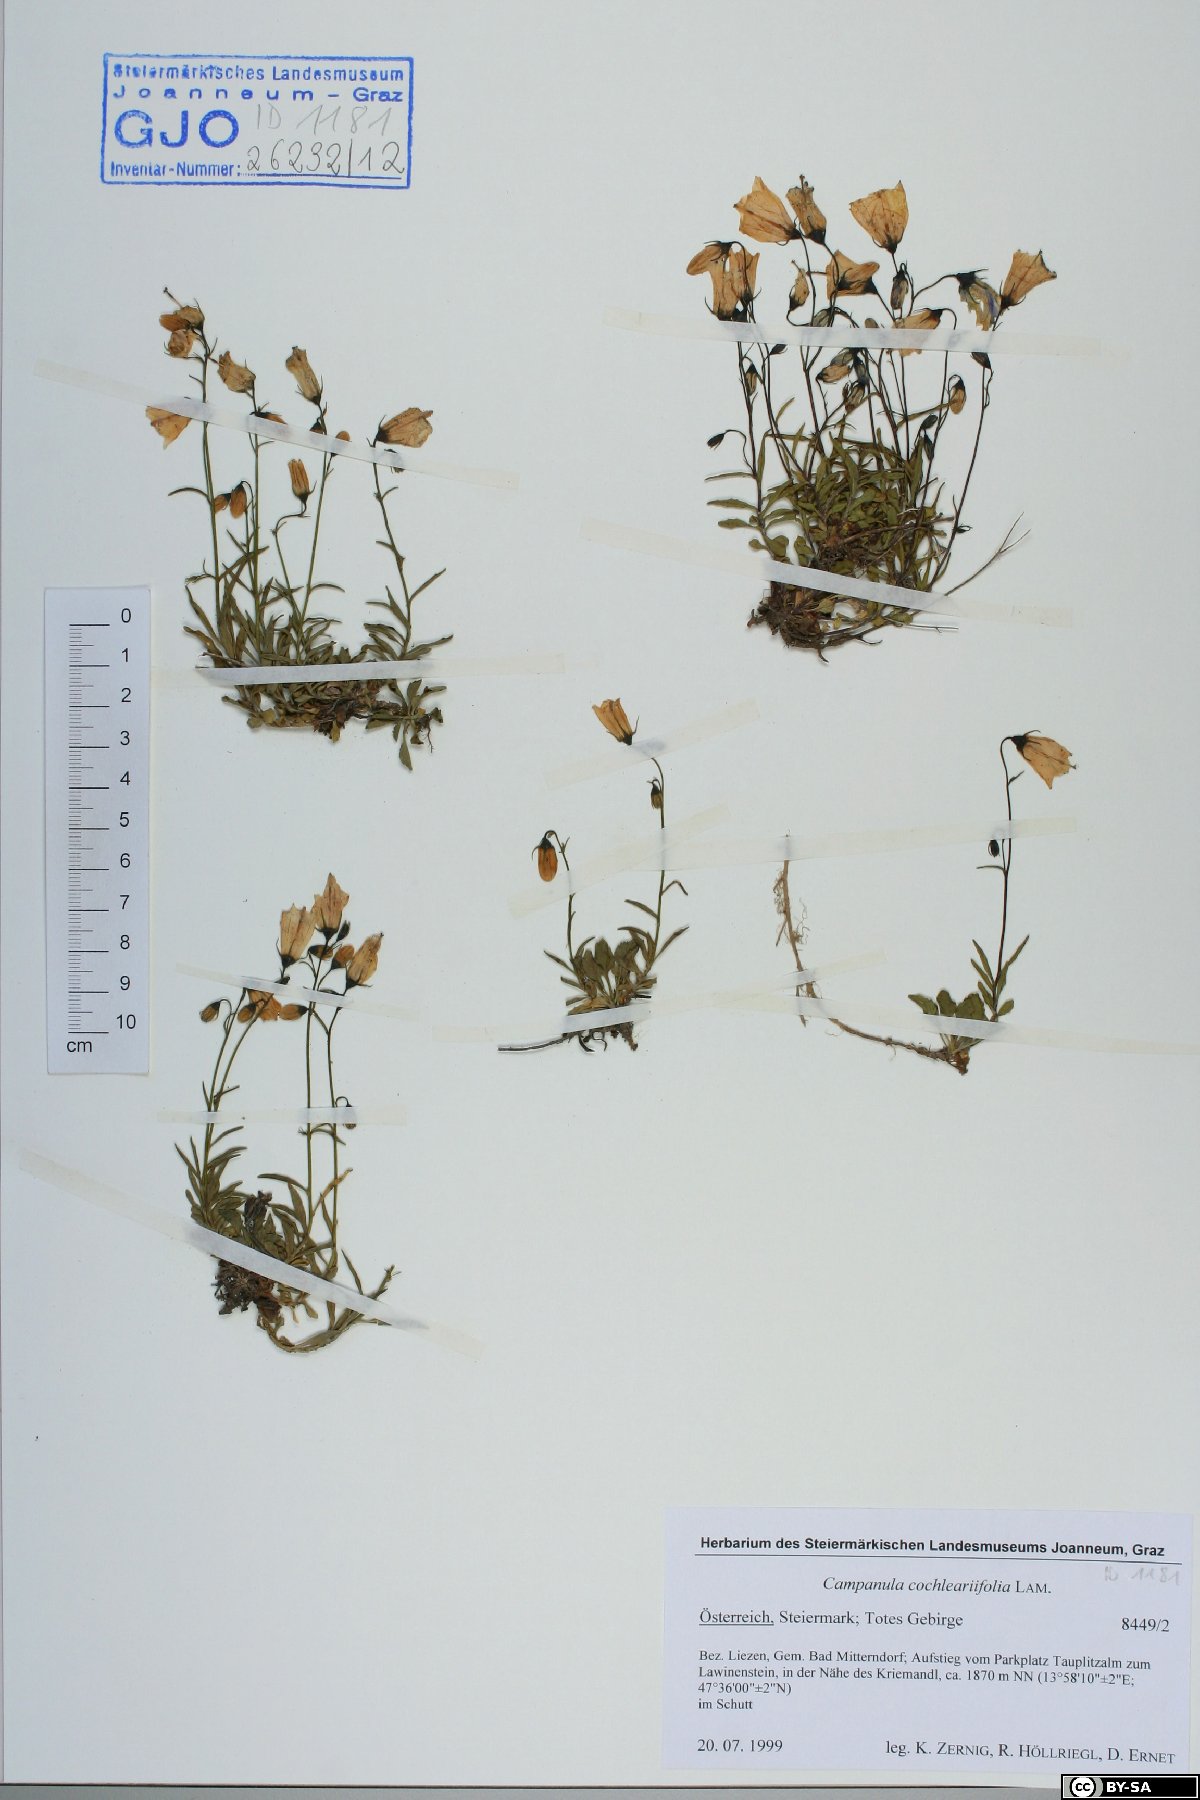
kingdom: Plantae
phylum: Tracheophyta
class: Magnoliopsida
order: Asterales
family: Campanulaceae
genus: Campanula
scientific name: Campanula cochleariifolia
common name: Fairies'-thimbles
